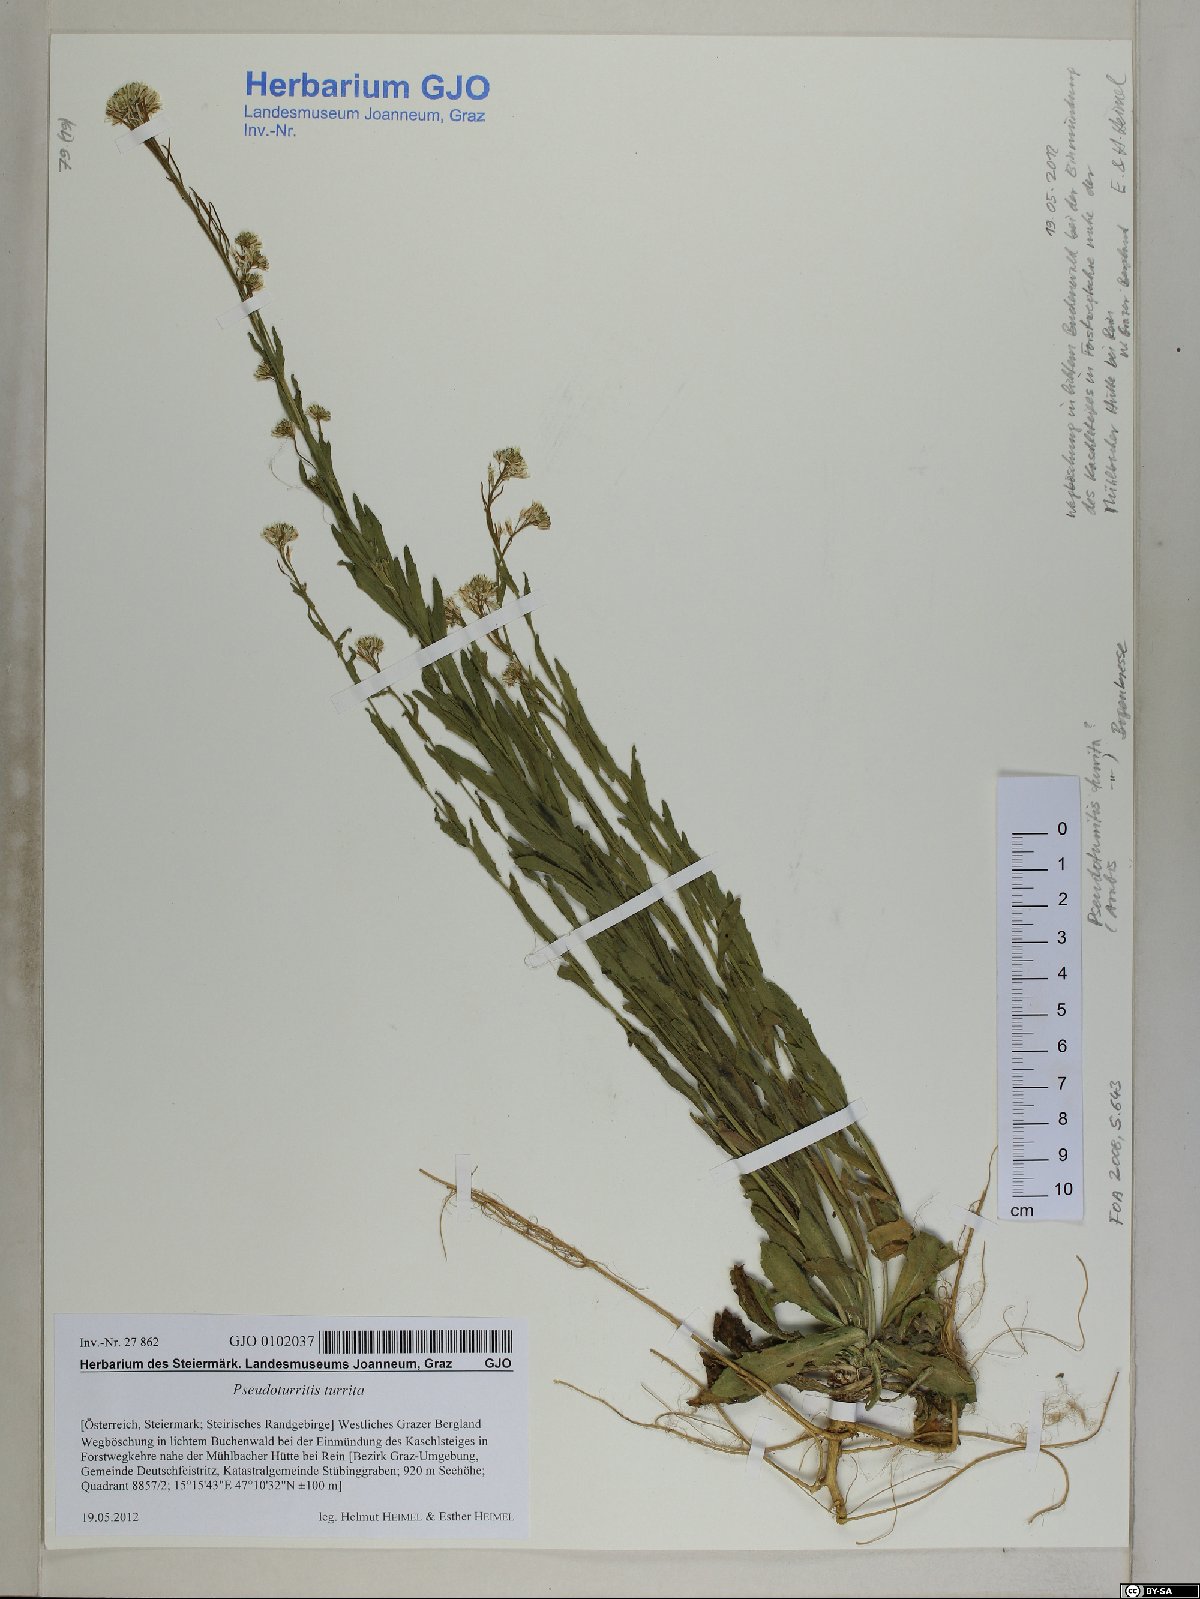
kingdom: Plantae
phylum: Tracheophyta
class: Magnoliopsida
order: Brassicales
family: Brassicaceae
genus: Arabis
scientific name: Arabis sagittata
